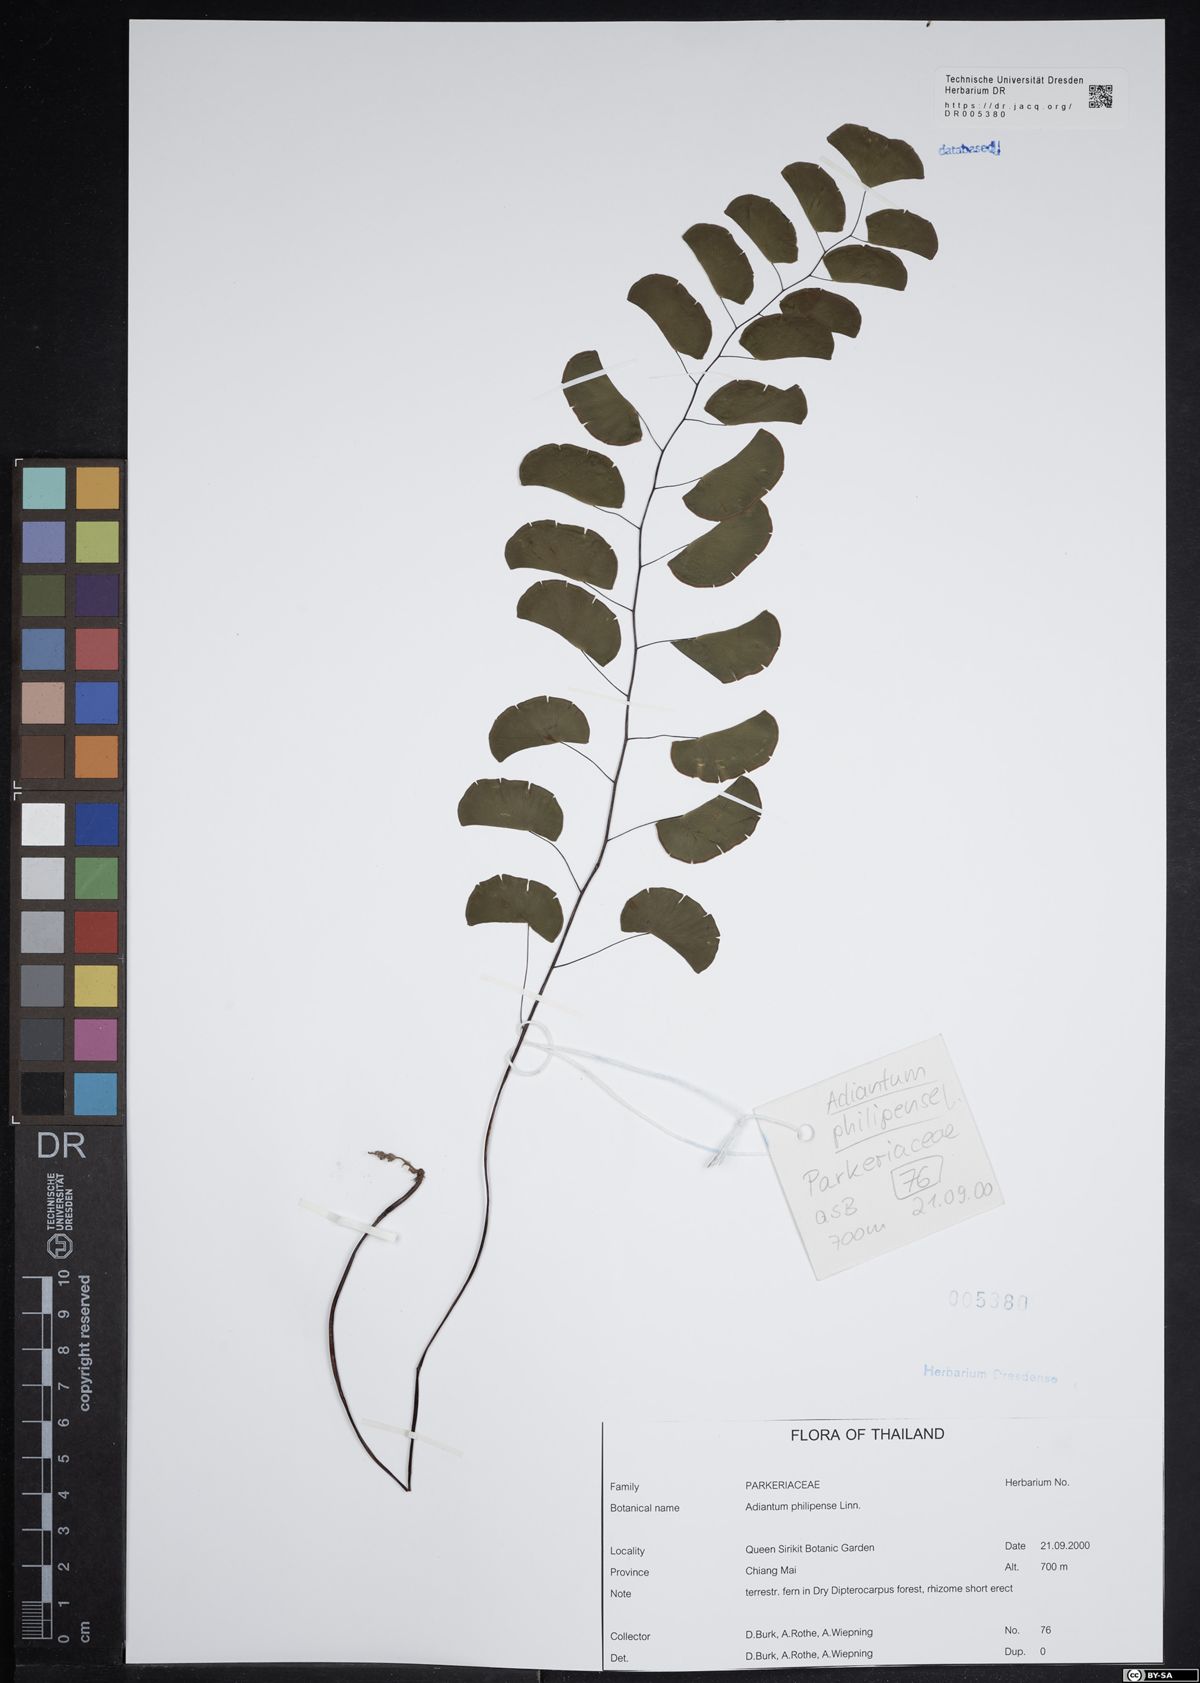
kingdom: Plantae
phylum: Tracheophyta
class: Polypodiopsida
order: Polypodiales
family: Pteridaceae
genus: Adiantum
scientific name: Adiantum philippense
